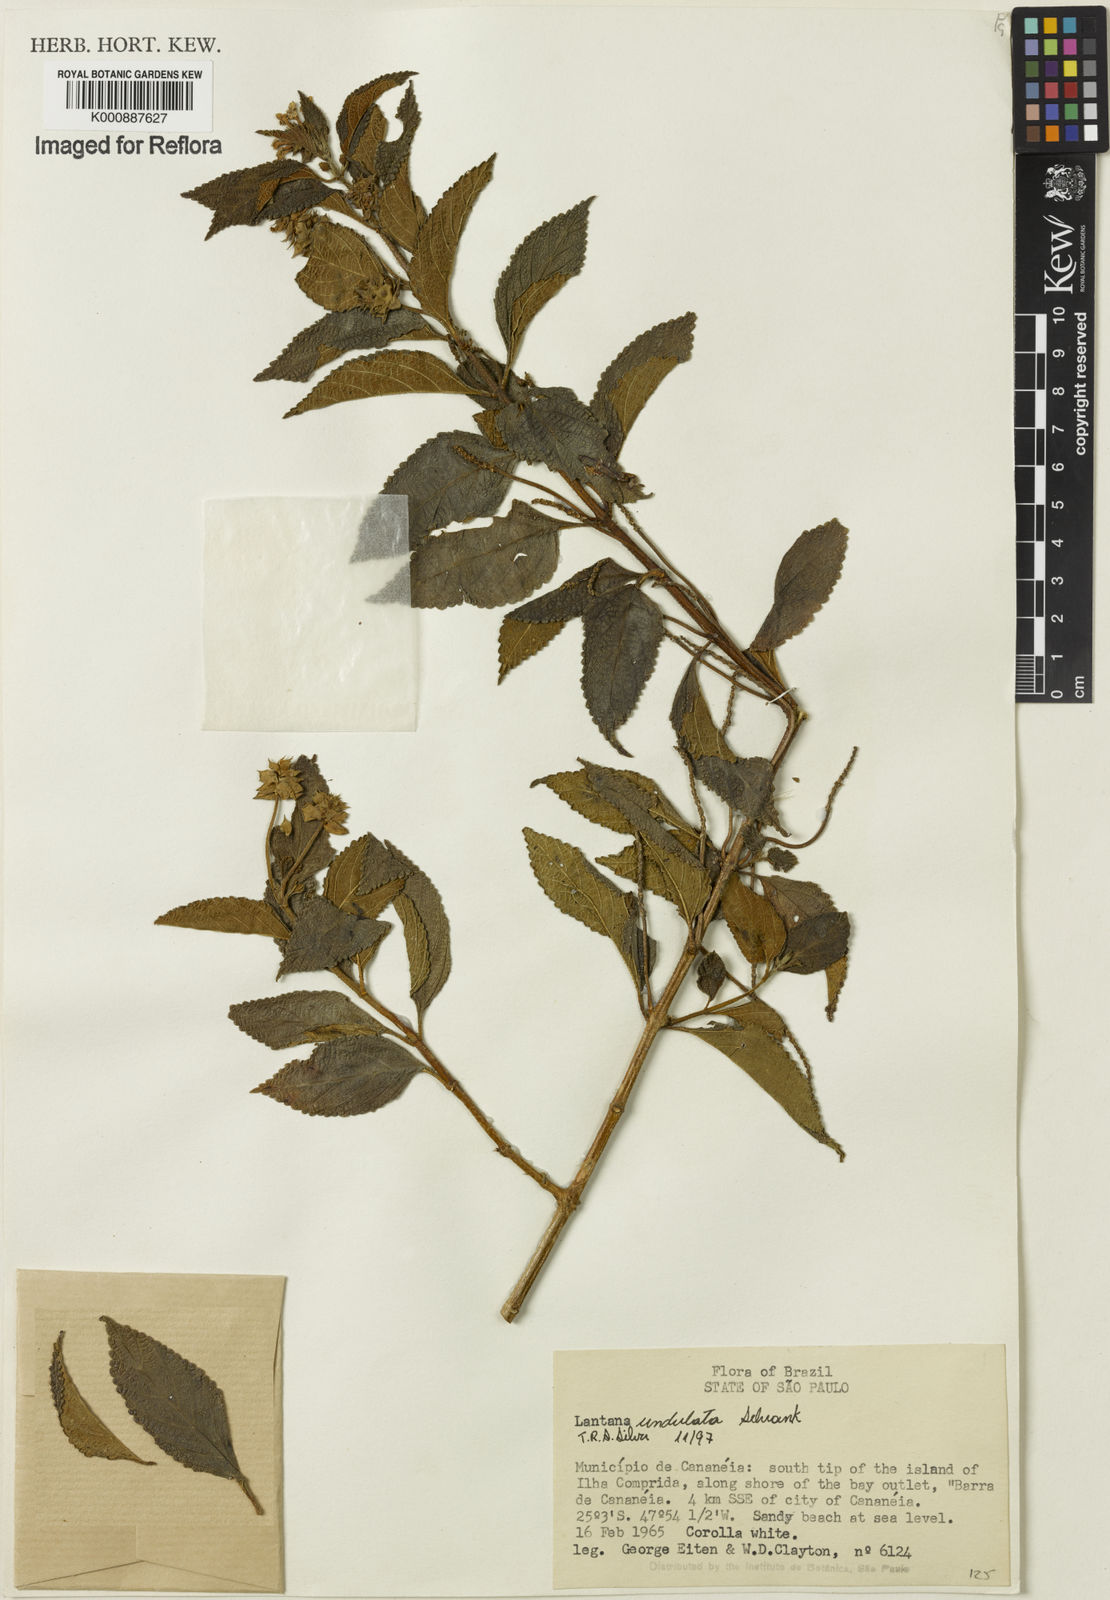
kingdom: Plantae
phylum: Tracheophyta
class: Magnoliopsida
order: Lamiales
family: Verbenaceae
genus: Lantana
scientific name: Lantana undulata
